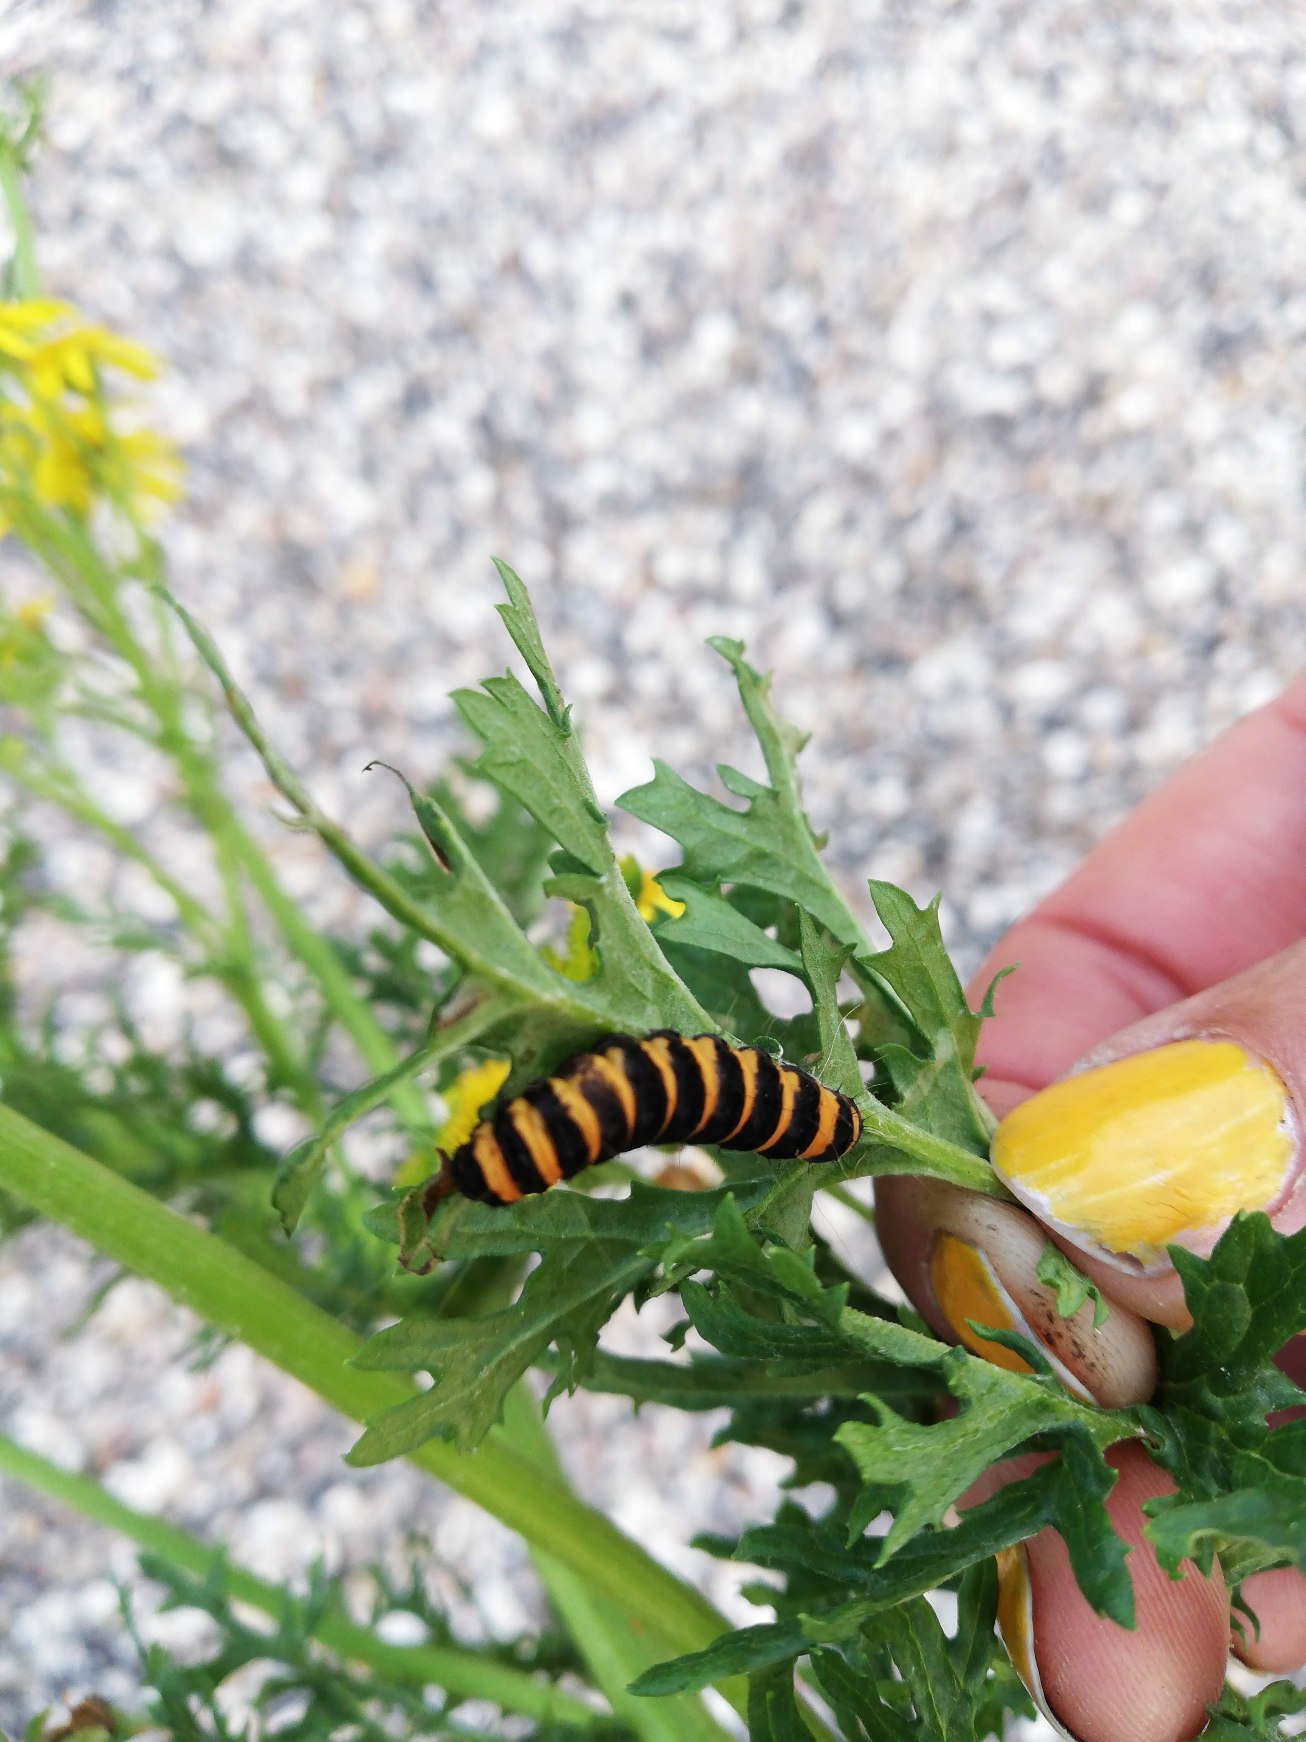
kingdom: Animalia
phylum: Arthropoda
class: Insecta
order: Lepidoptera
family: Erebidae
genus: Tyria
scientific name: Tyria jacobaeae
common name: Blodplet
